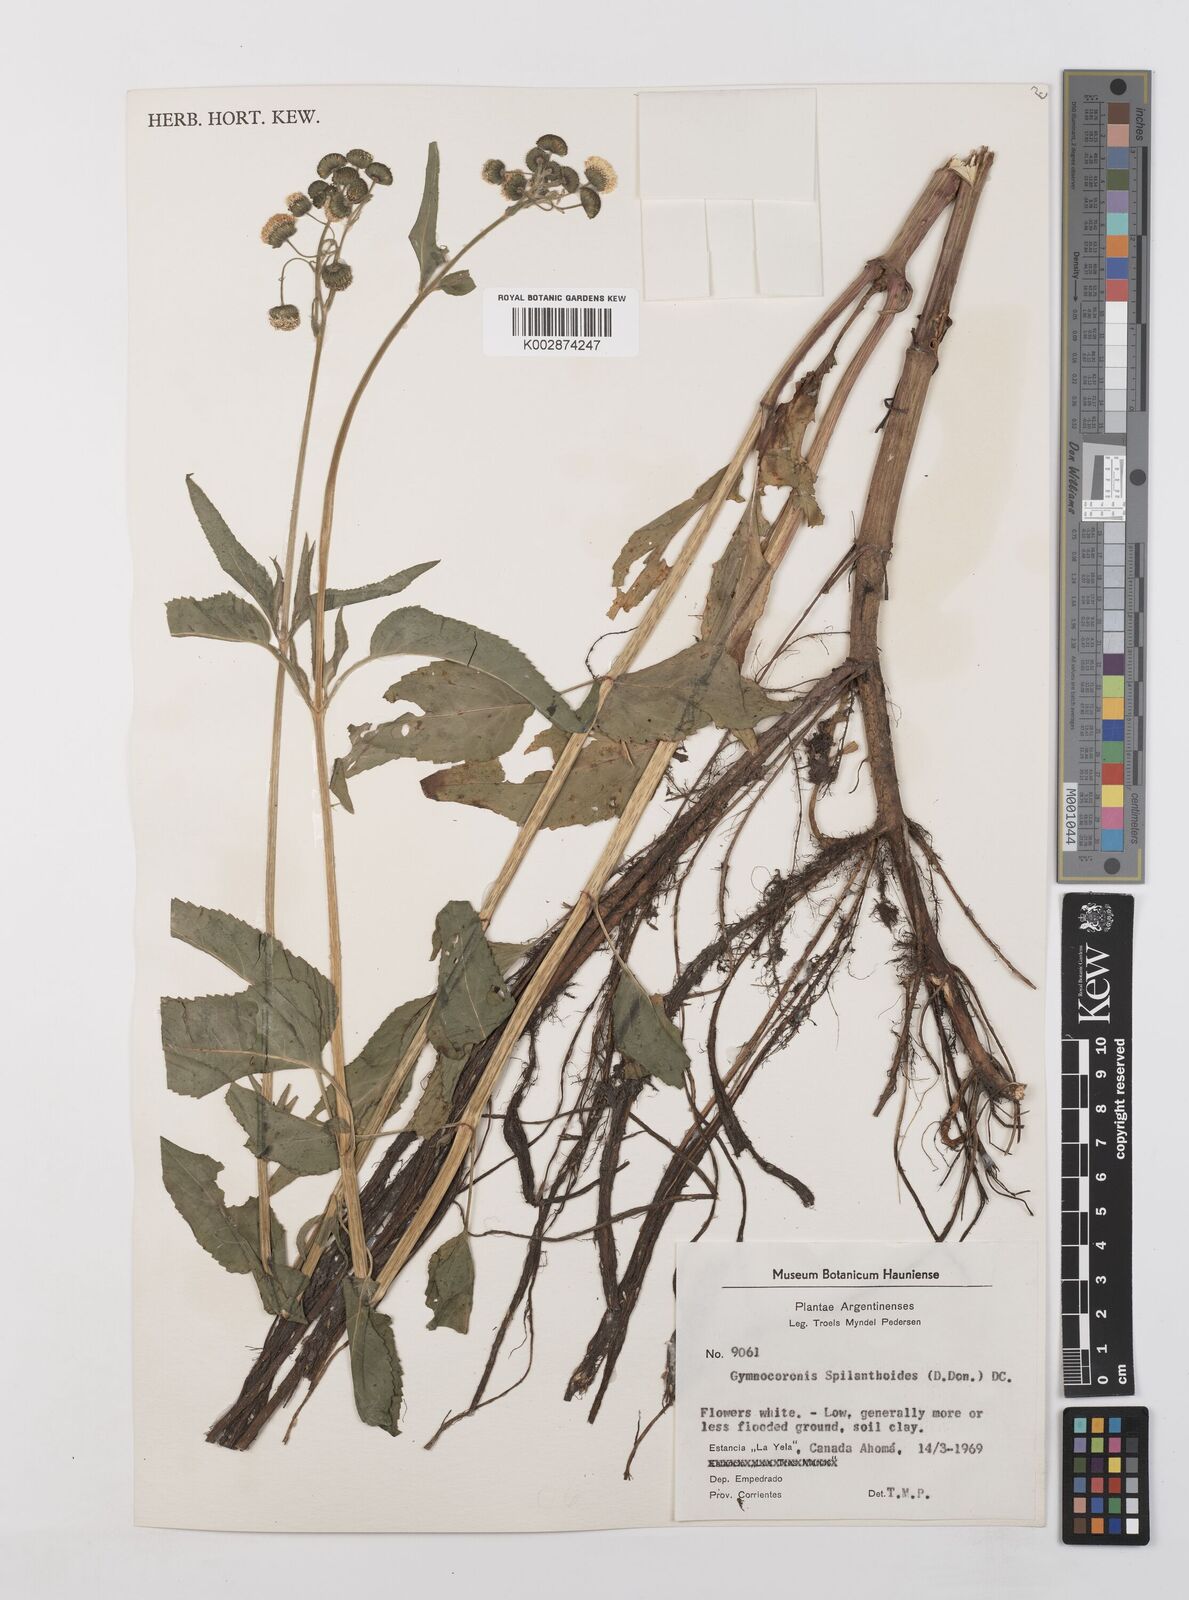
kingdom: Plantae
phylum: Tracheophyta
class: Magnoliopsida
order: Asterales
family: Asteraceae
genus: Gymnocoronis
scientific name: Gymnocoronis spilanthoides
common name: Senegal teaplant
